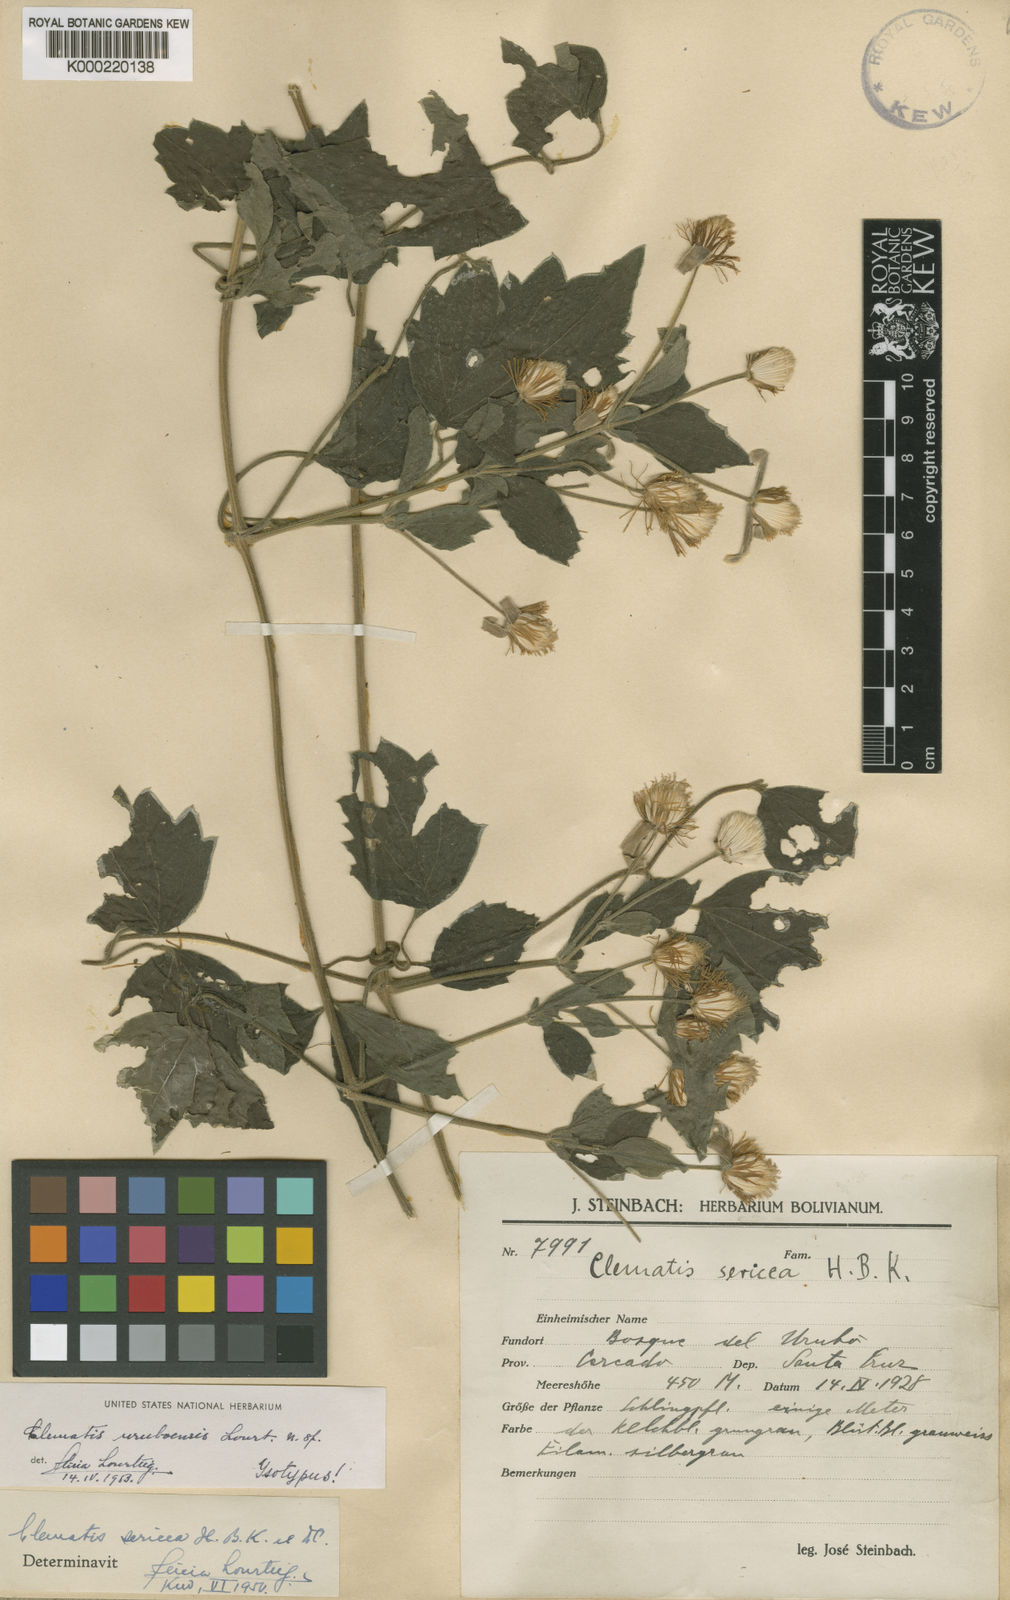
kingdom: Plantae
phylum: Tracheophyta
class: Magnoliopsida
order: Ranunculales
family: Ranunculaceae
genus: Clematis
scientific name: Clematis uruboensis
